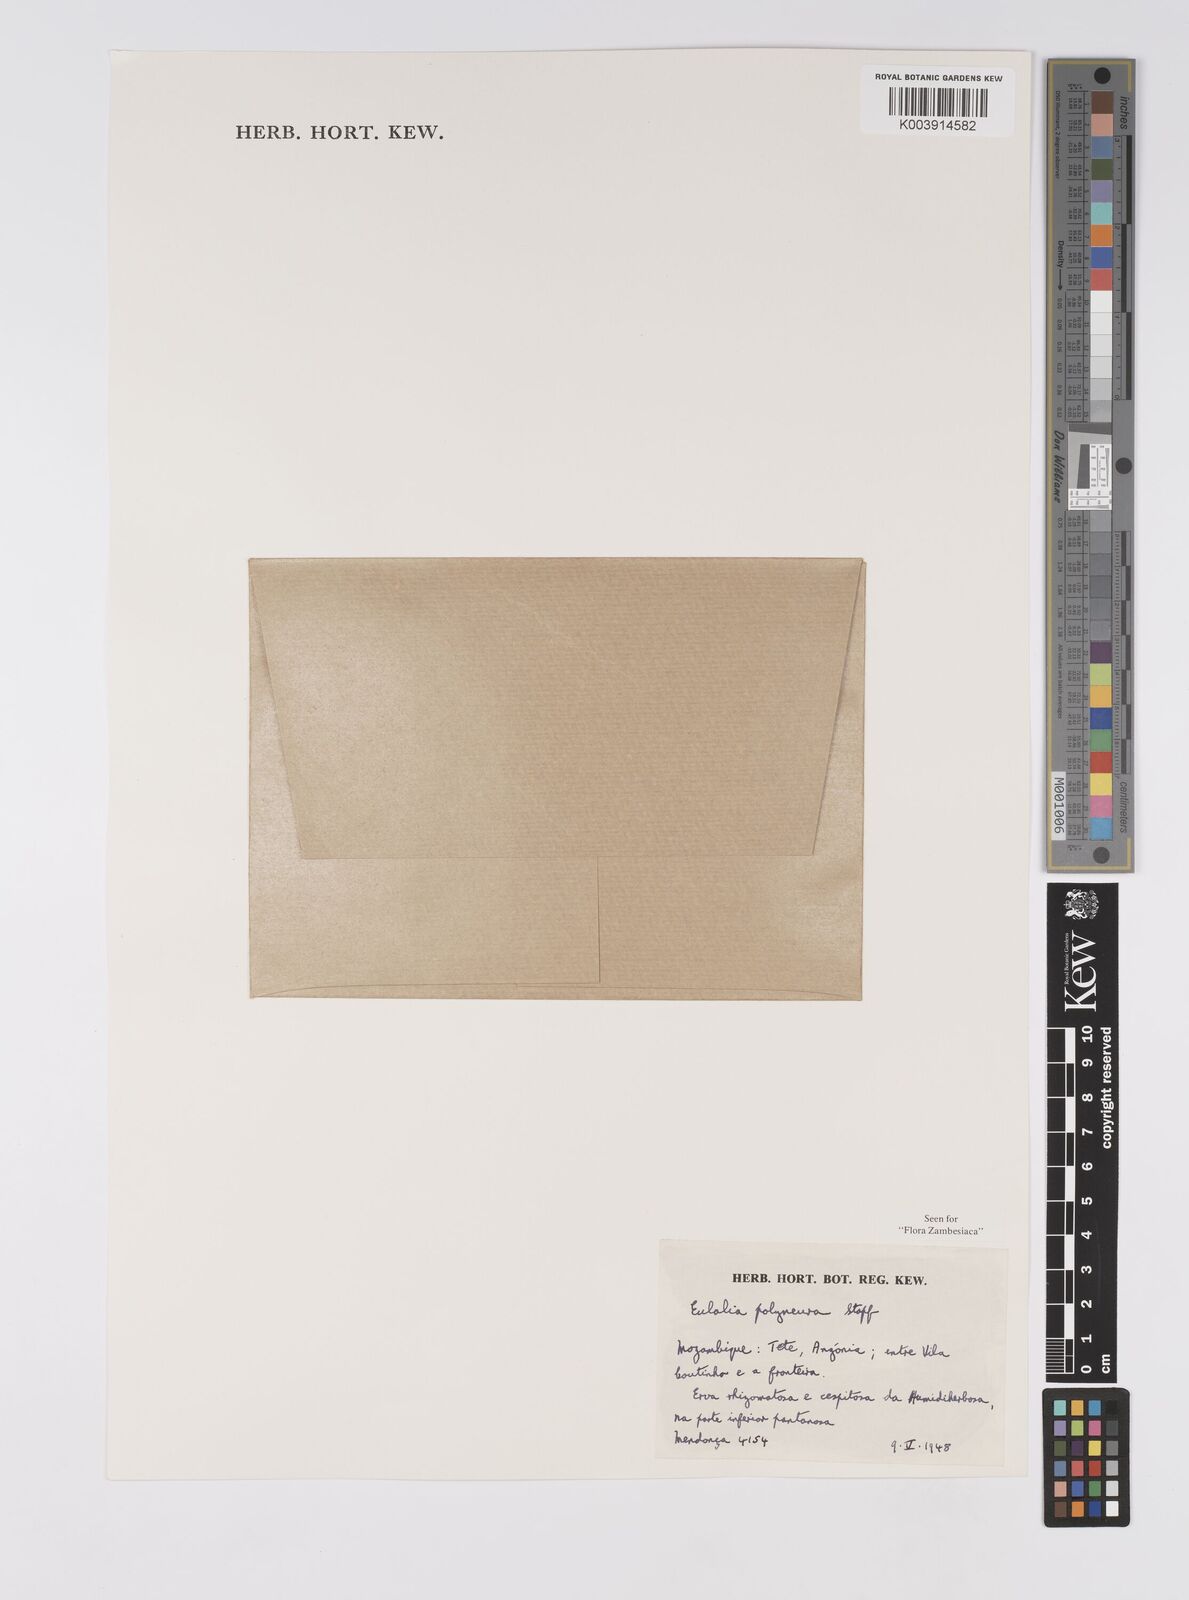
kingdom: Plantae
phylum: Tracheophyta
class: Liliopsida
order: Poales
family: Poaceae
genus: Eulalia
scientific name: Eulalia polyneura
